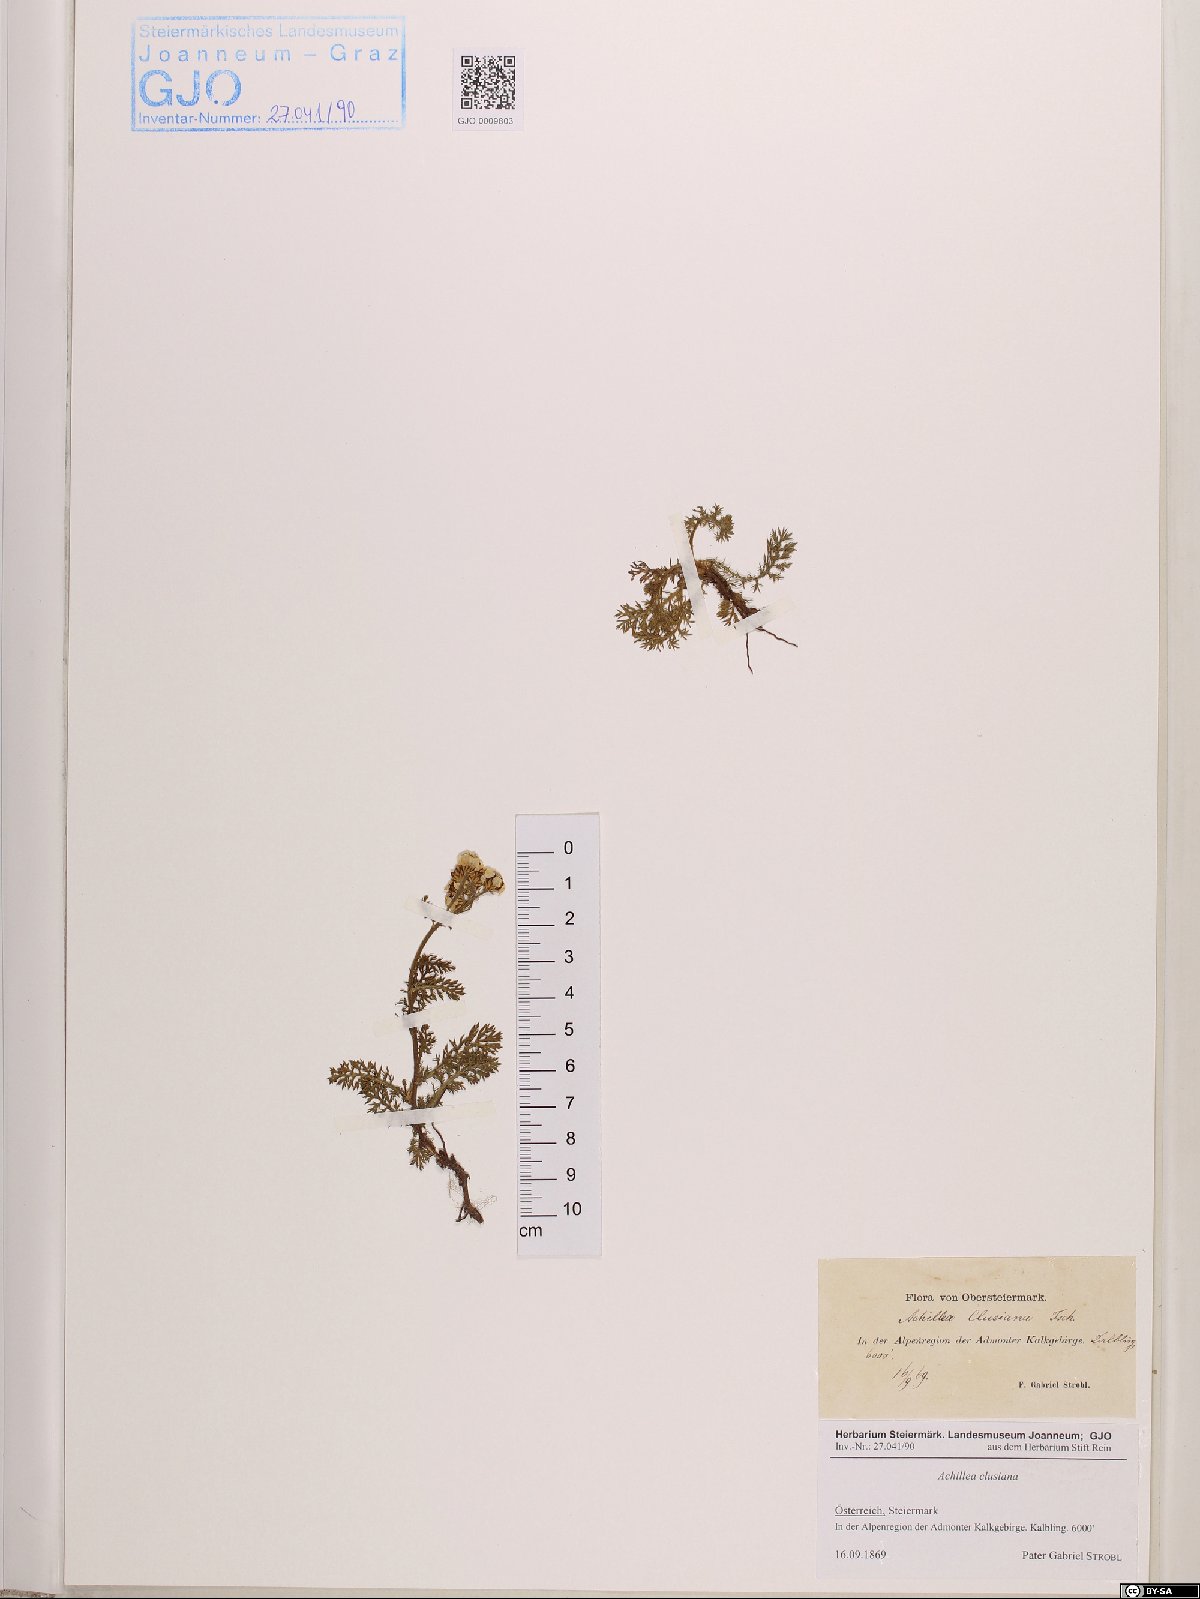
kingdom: Plantae
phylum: Tracheophyta
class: Magnoliopsida
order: Asterales
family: Asteraceae
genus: Achillea
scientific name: Achillea clusiana
